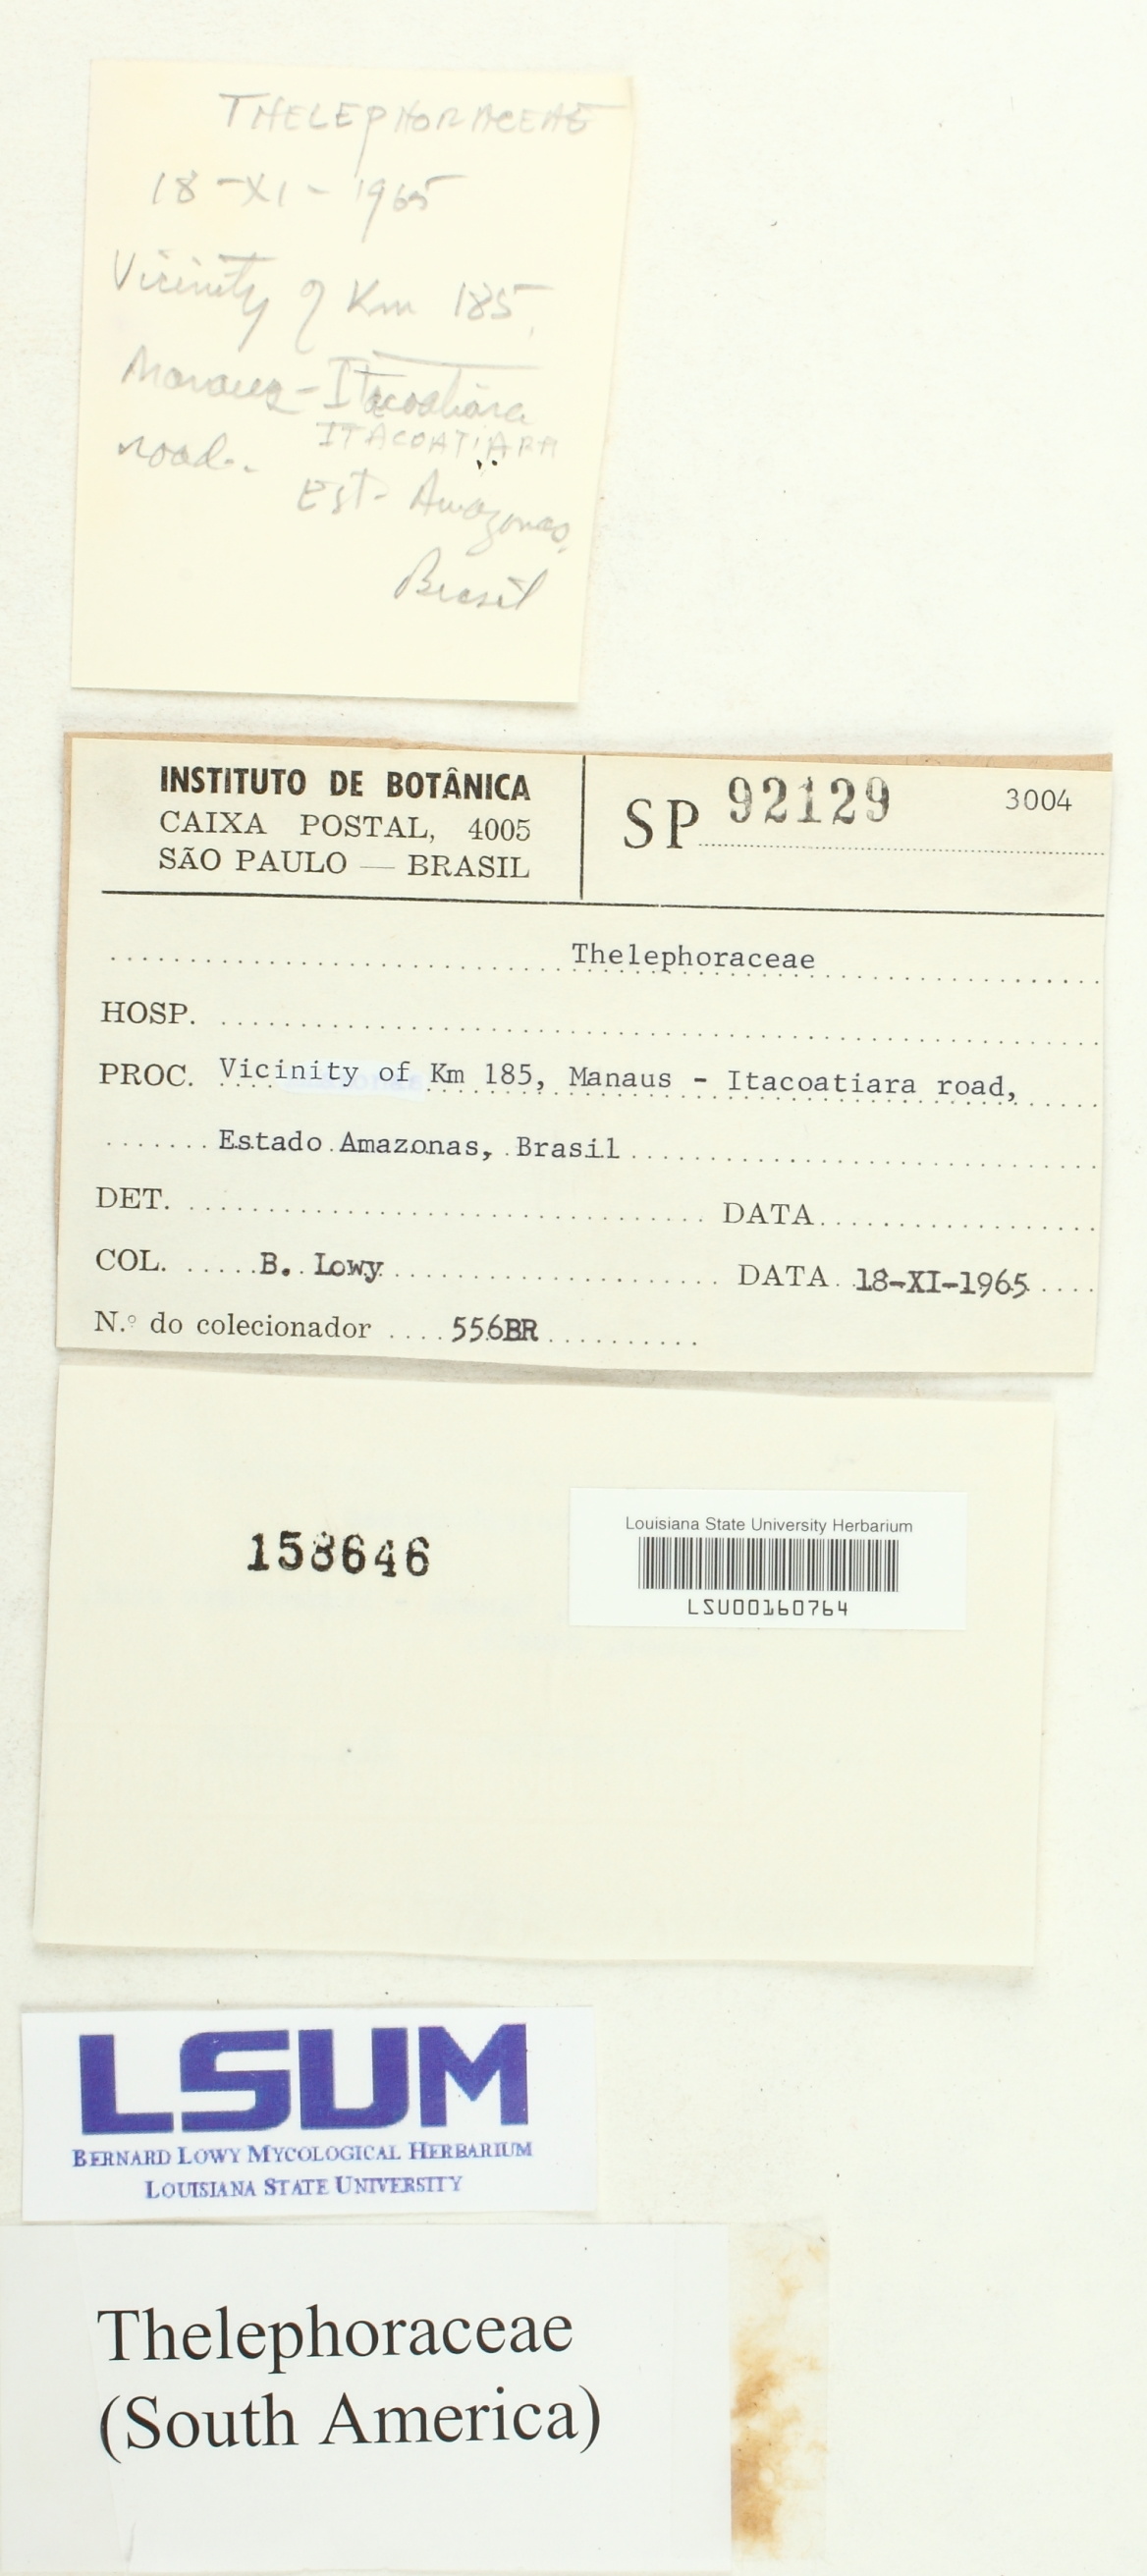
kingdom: Fungi
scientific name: Fungi
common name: Fungi
